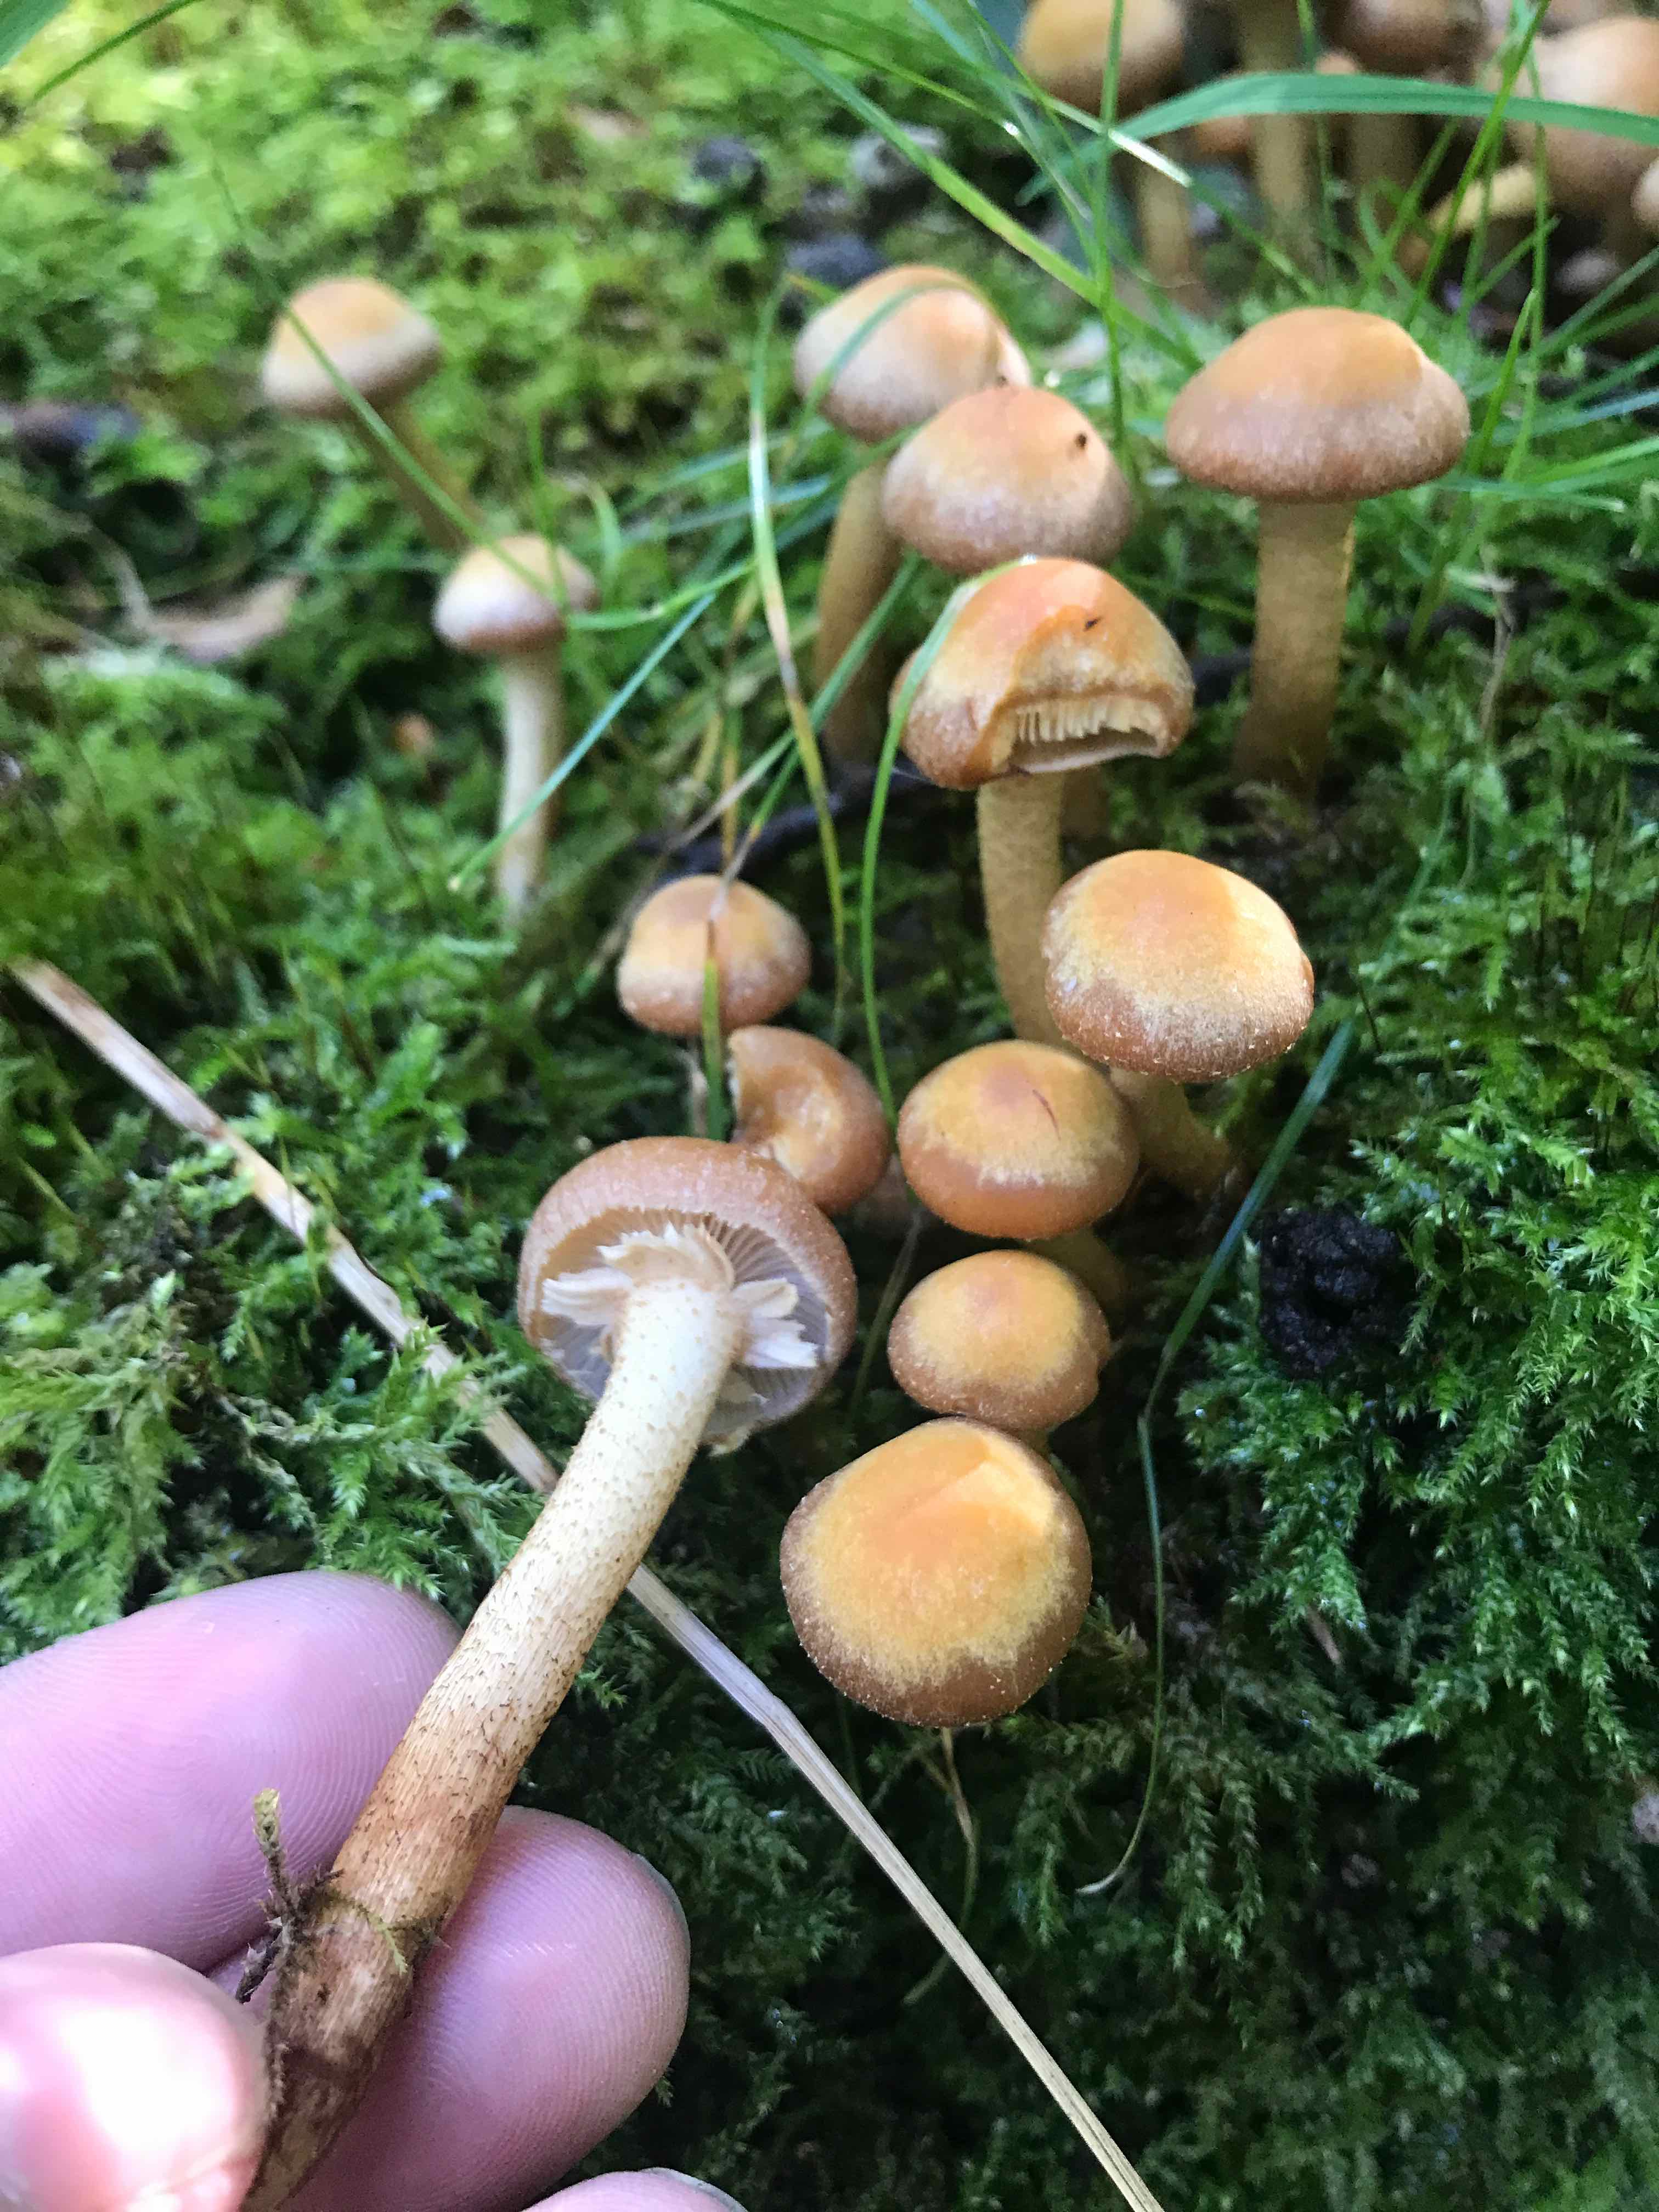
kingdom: Fungi
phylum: Basidiomycota
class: Agaricomycetes
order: Agaricales
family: Strophariaceae
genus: Kuehneromyces
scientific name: Kuehneromyces mutabilis
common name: foranderlig skælhat
